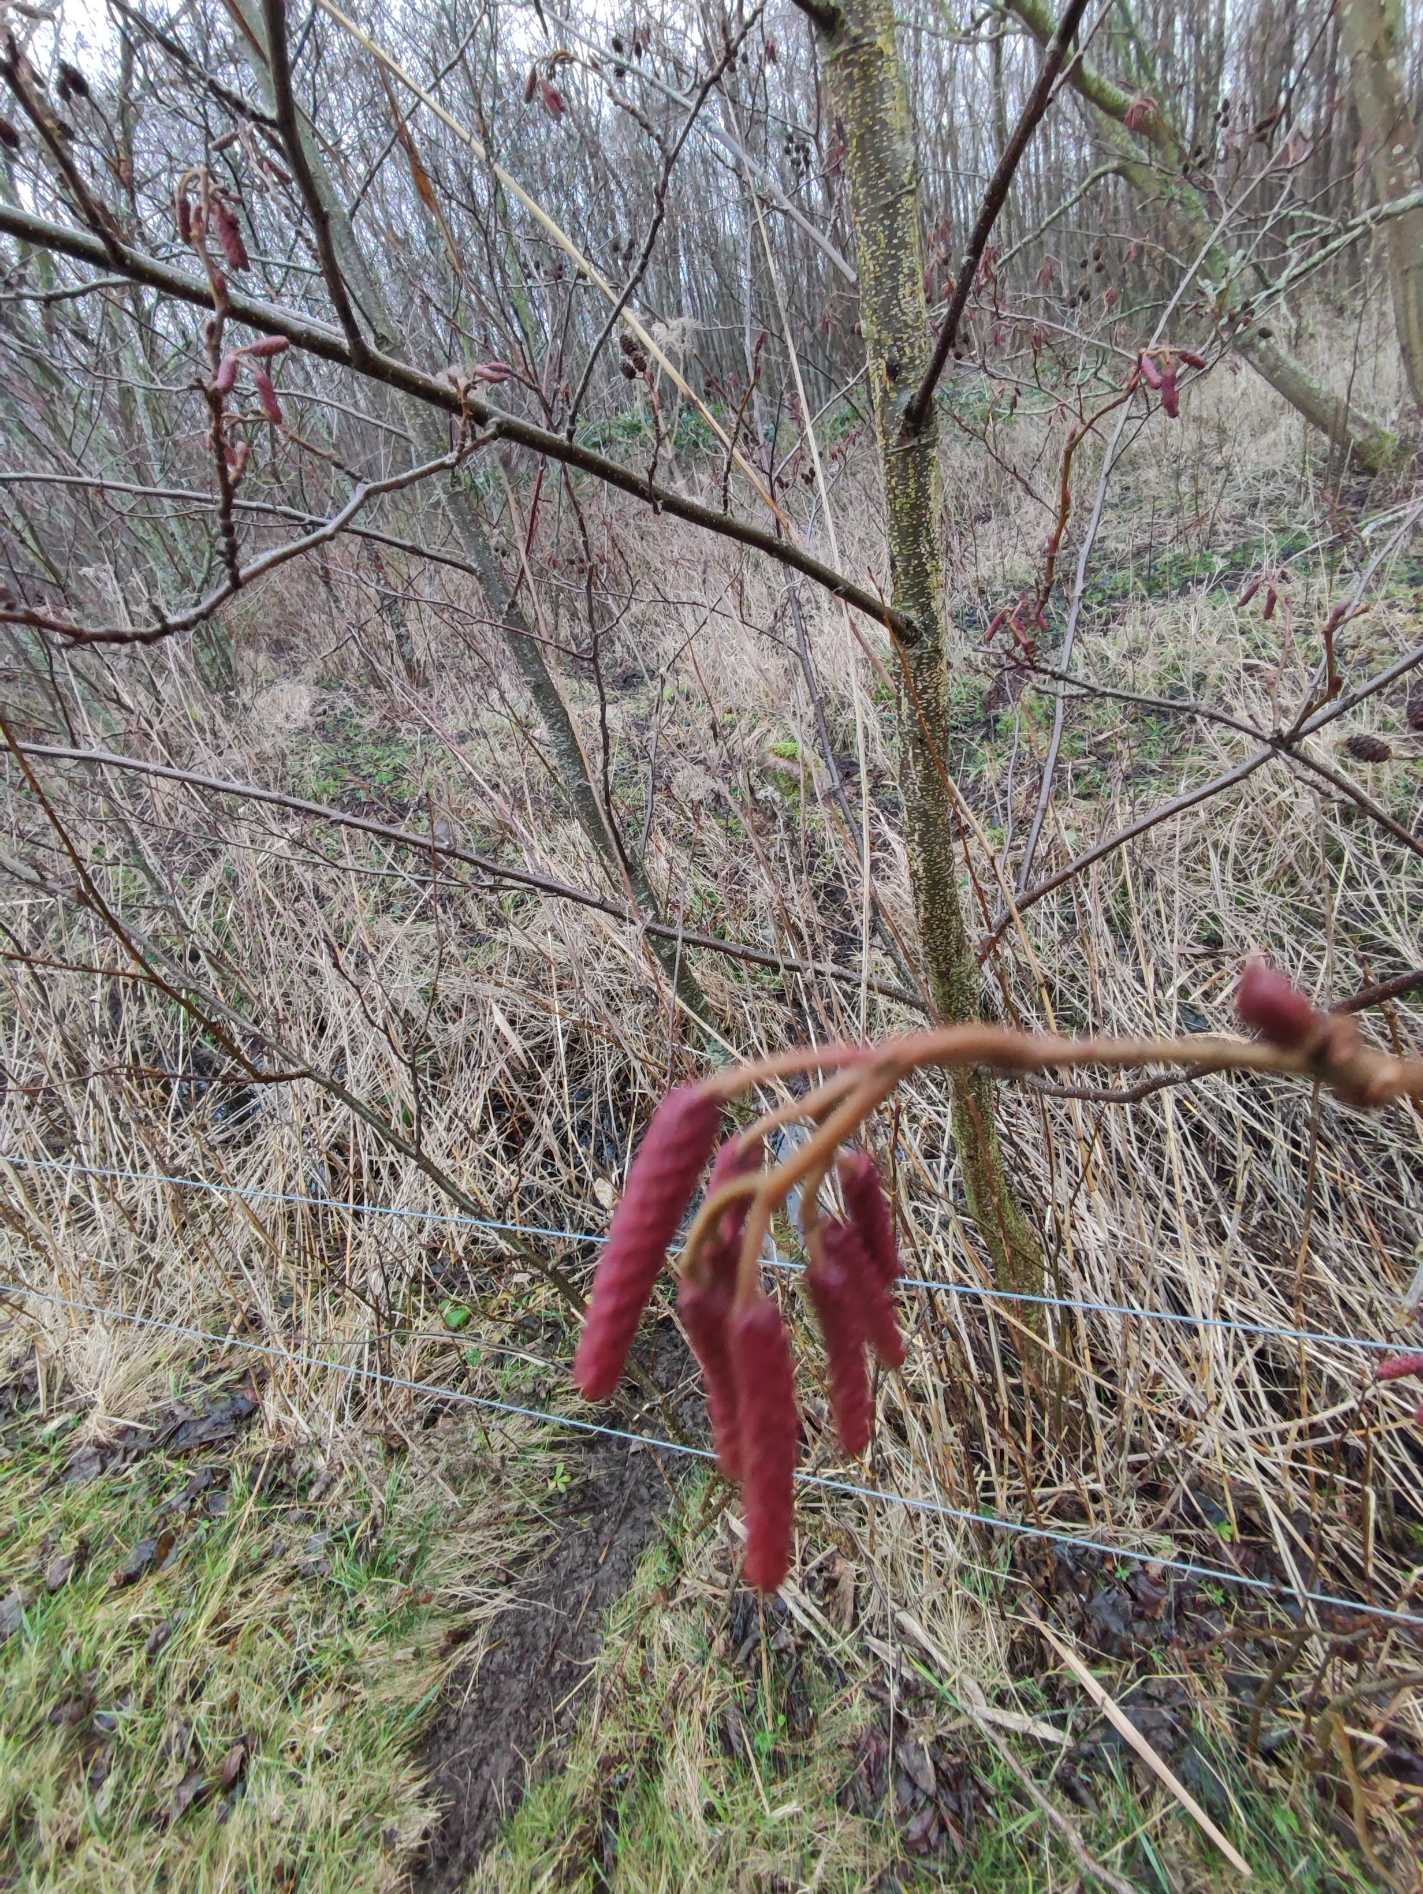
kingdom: Plantae
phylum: Tracheophyta
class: Magnoliopsida
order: Fagales
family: Betulaceae
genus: Alnus
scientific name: Alnus glutinosa
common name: Rød-el
